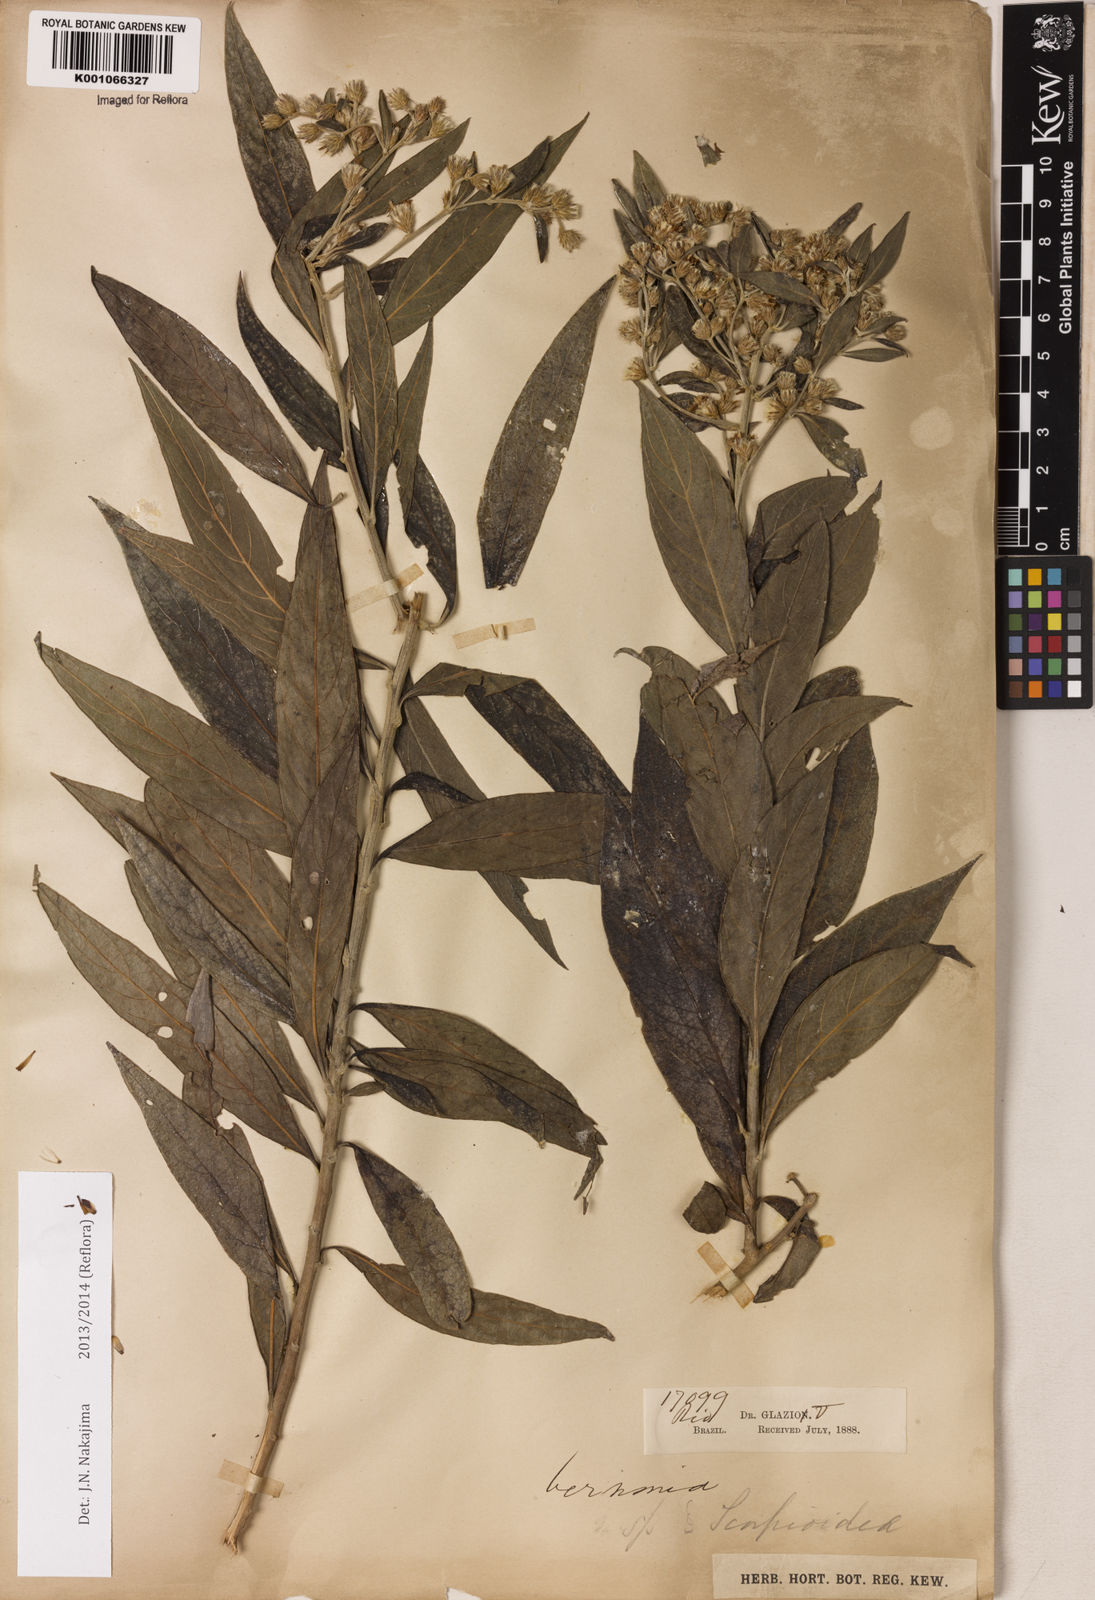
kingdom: Plantae
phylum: Tracheophyta
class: Magnoliopsida
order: Asterales
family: Asteraceae
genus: Vernonia
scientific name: Vernonia
